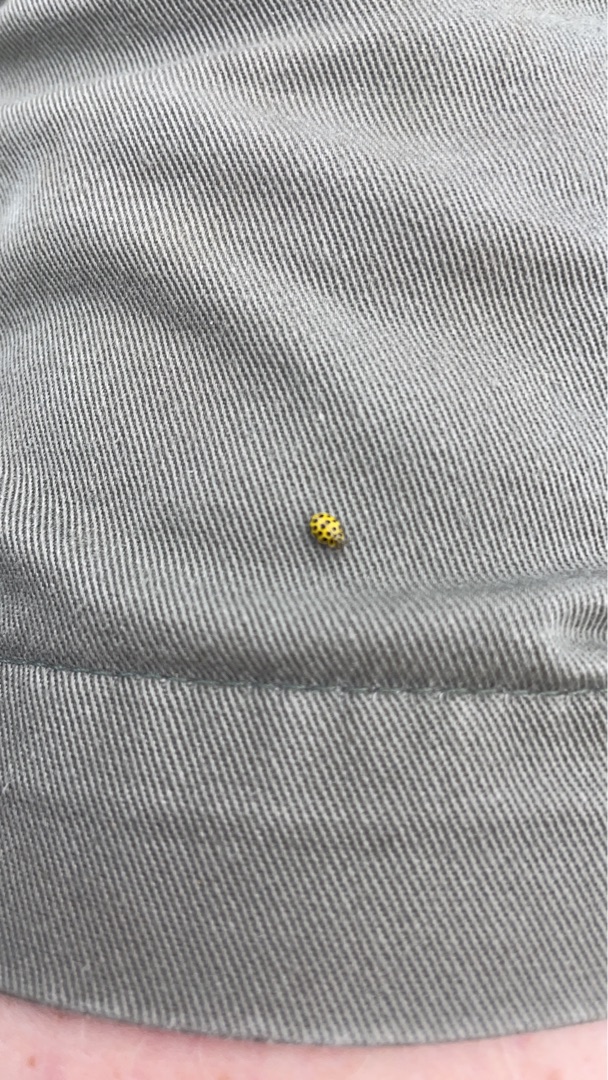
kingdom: Animalia
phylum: Arthropoda
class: Insecta
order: Coleoptera
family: Coccinellidae
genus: Psyllobora
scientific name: Psyllobora vigintiduopunctata
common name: Toogtyveplettet mariehøne
